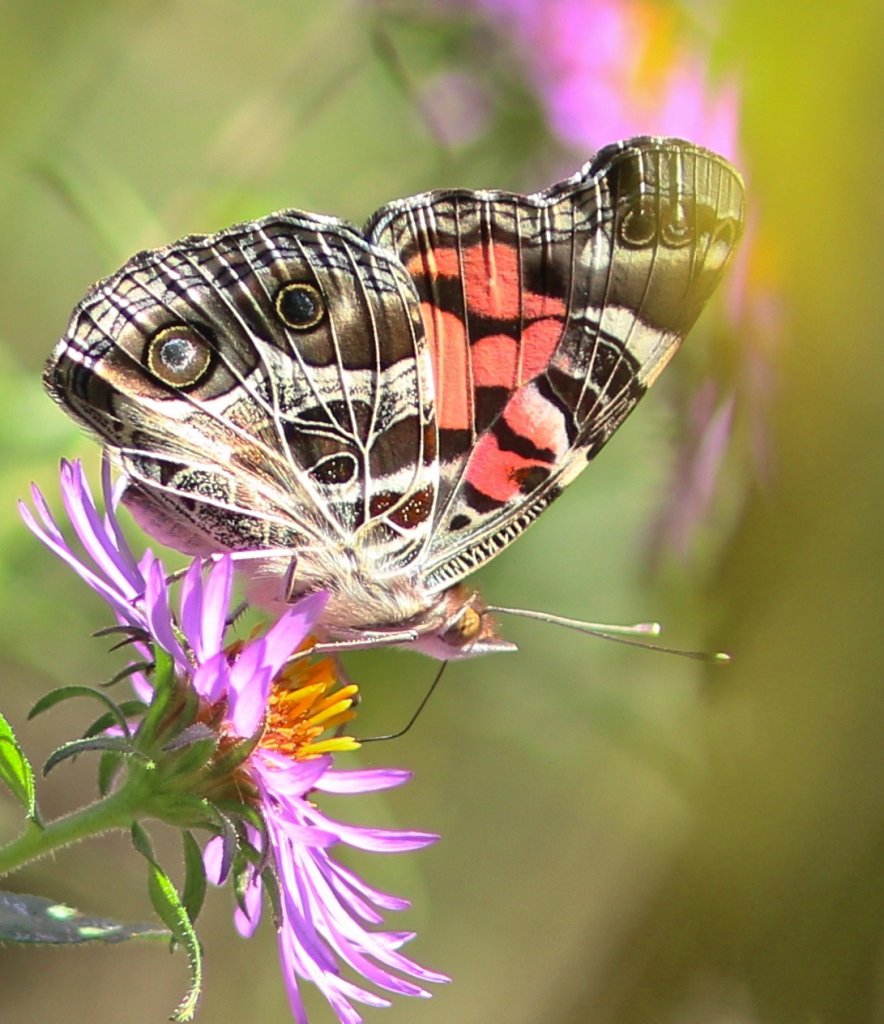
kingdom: Animalia
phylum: Arthropoda
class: Insecta
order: Lepidoptera
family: Nymphalidae
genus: Vanessa
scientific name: Vanessa virginiensis
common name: American Lady
